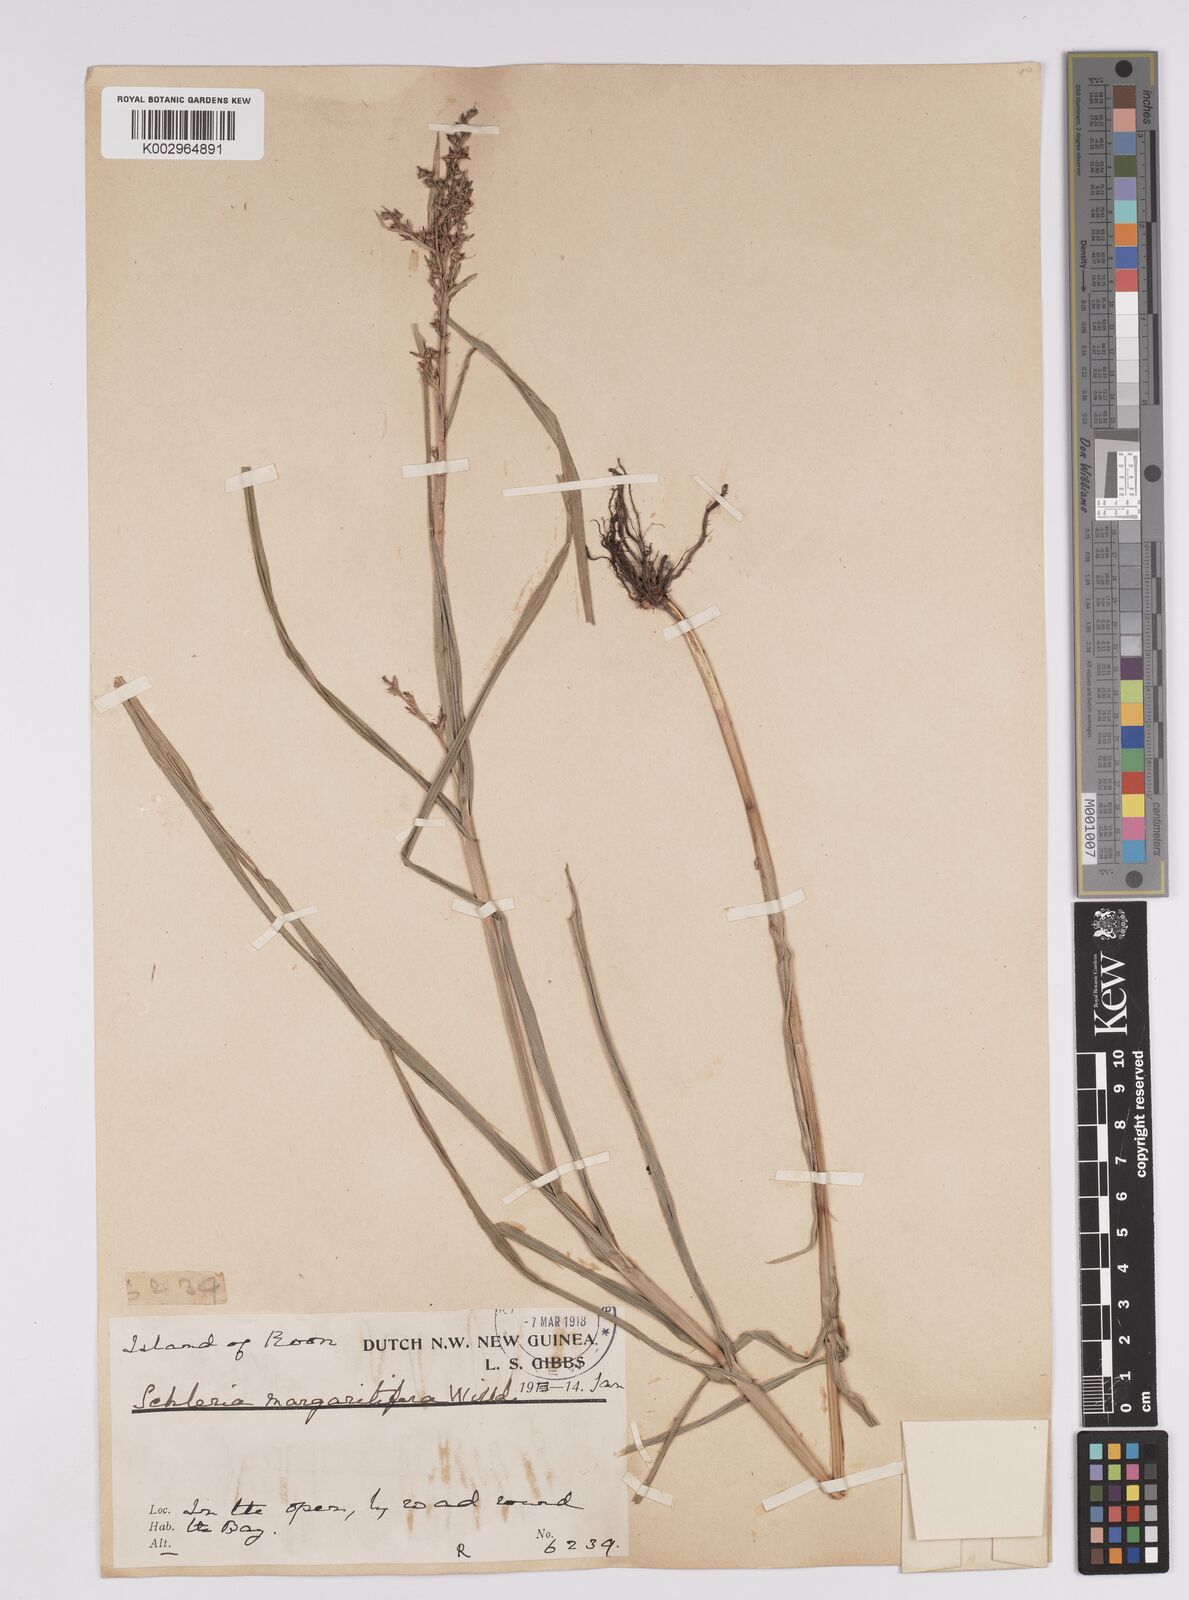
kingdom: Plantae
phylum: Tracheophyta
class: Liliopsida
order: Poales
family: Cyperaceae
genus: Scleria
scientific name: Scleria polycarpa
